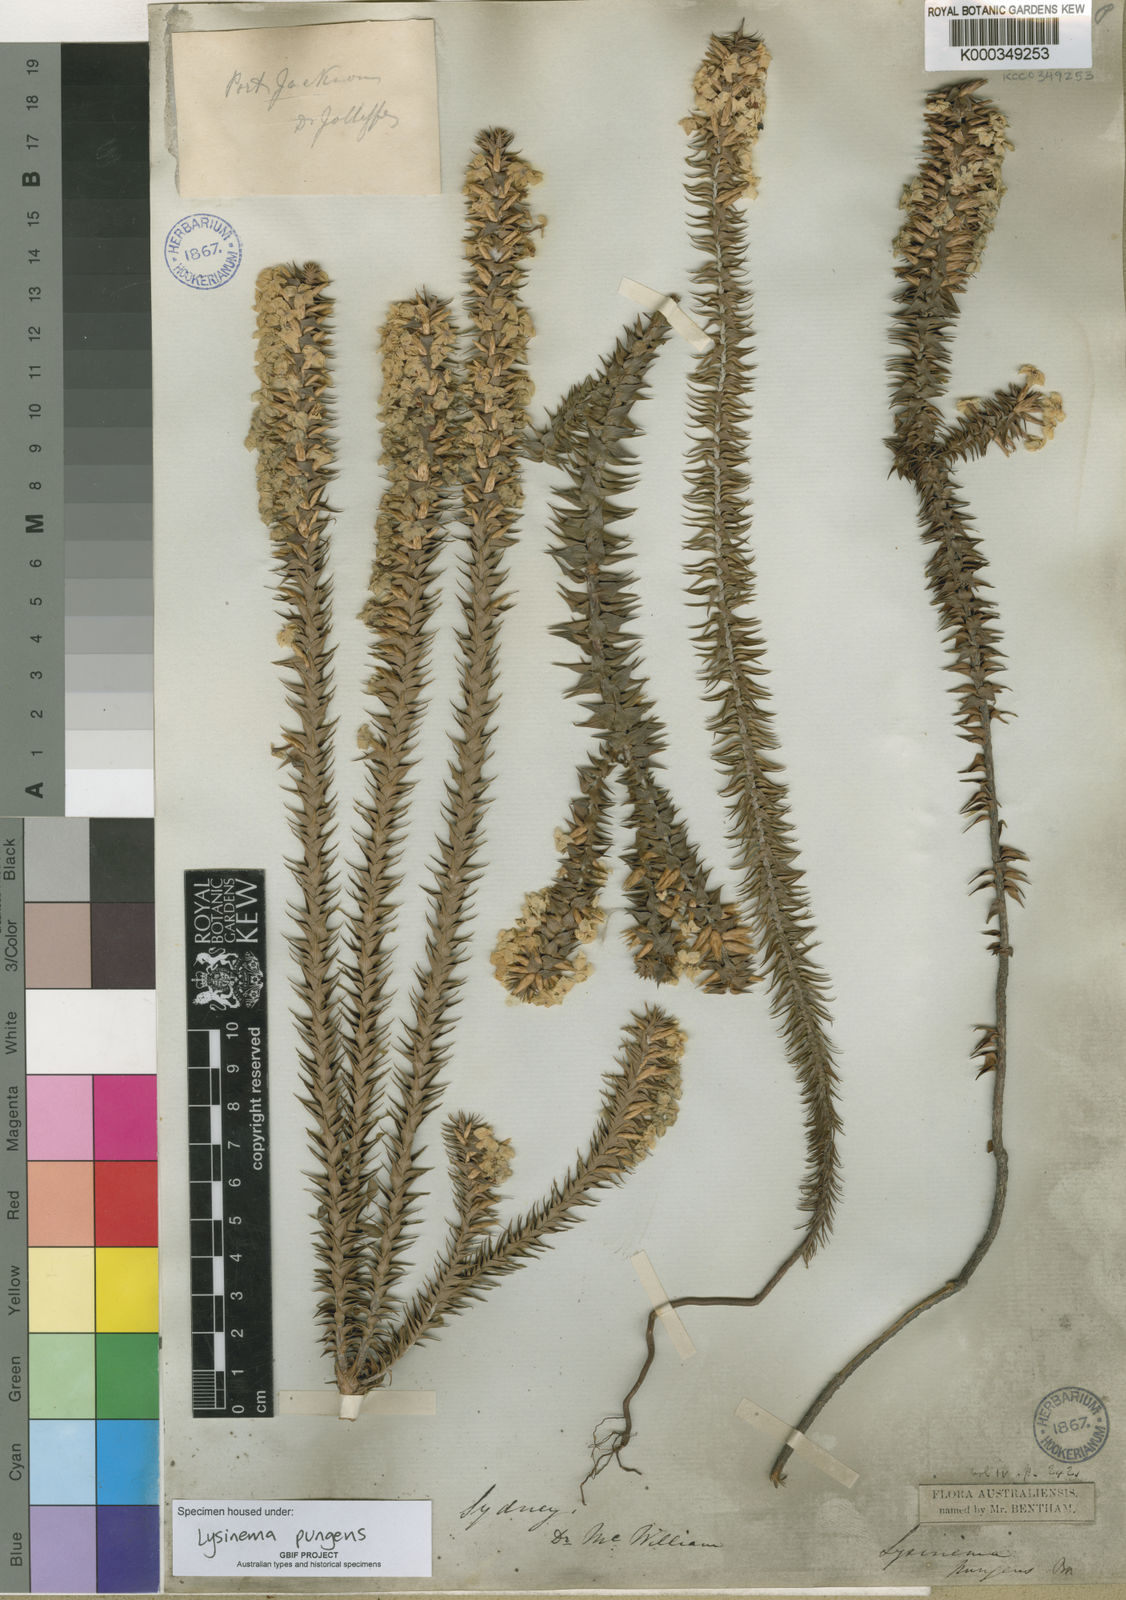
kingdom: Plantae
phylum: Tracheophyta
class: Magnoliopsida
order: Ericales
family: Ericaceae
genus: Woollsia
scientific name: Woollsia pungens
